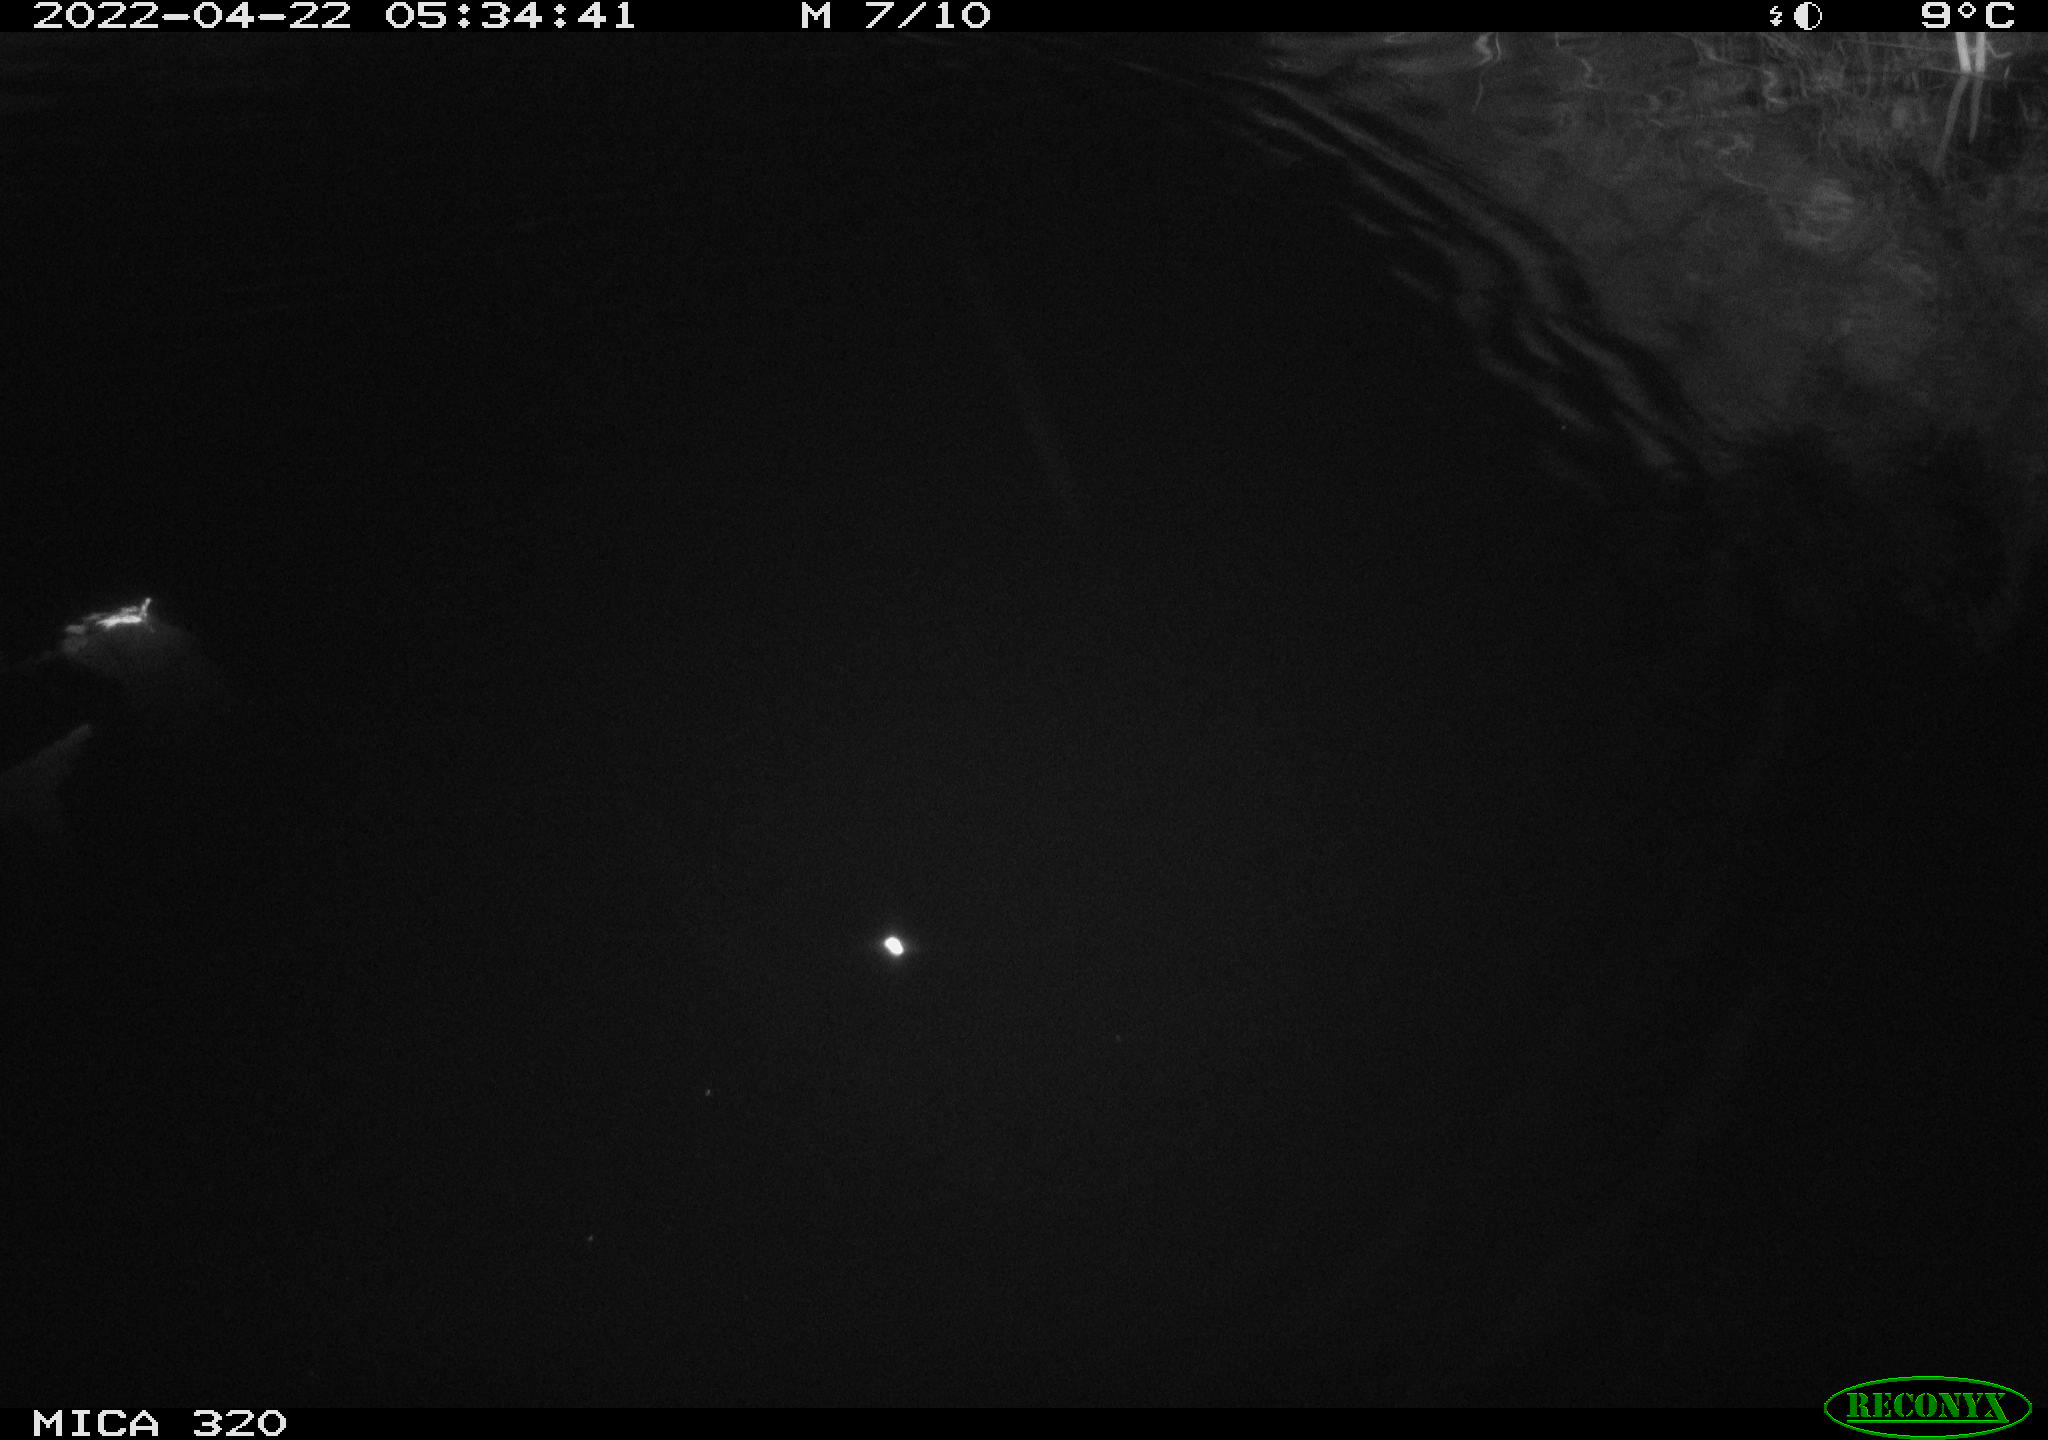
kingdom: Animalia
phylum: Chordata
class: Aves
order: Anseriformes
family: Anatidae
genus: Anas
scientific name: Anas platyrhynchos
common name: Mallard
